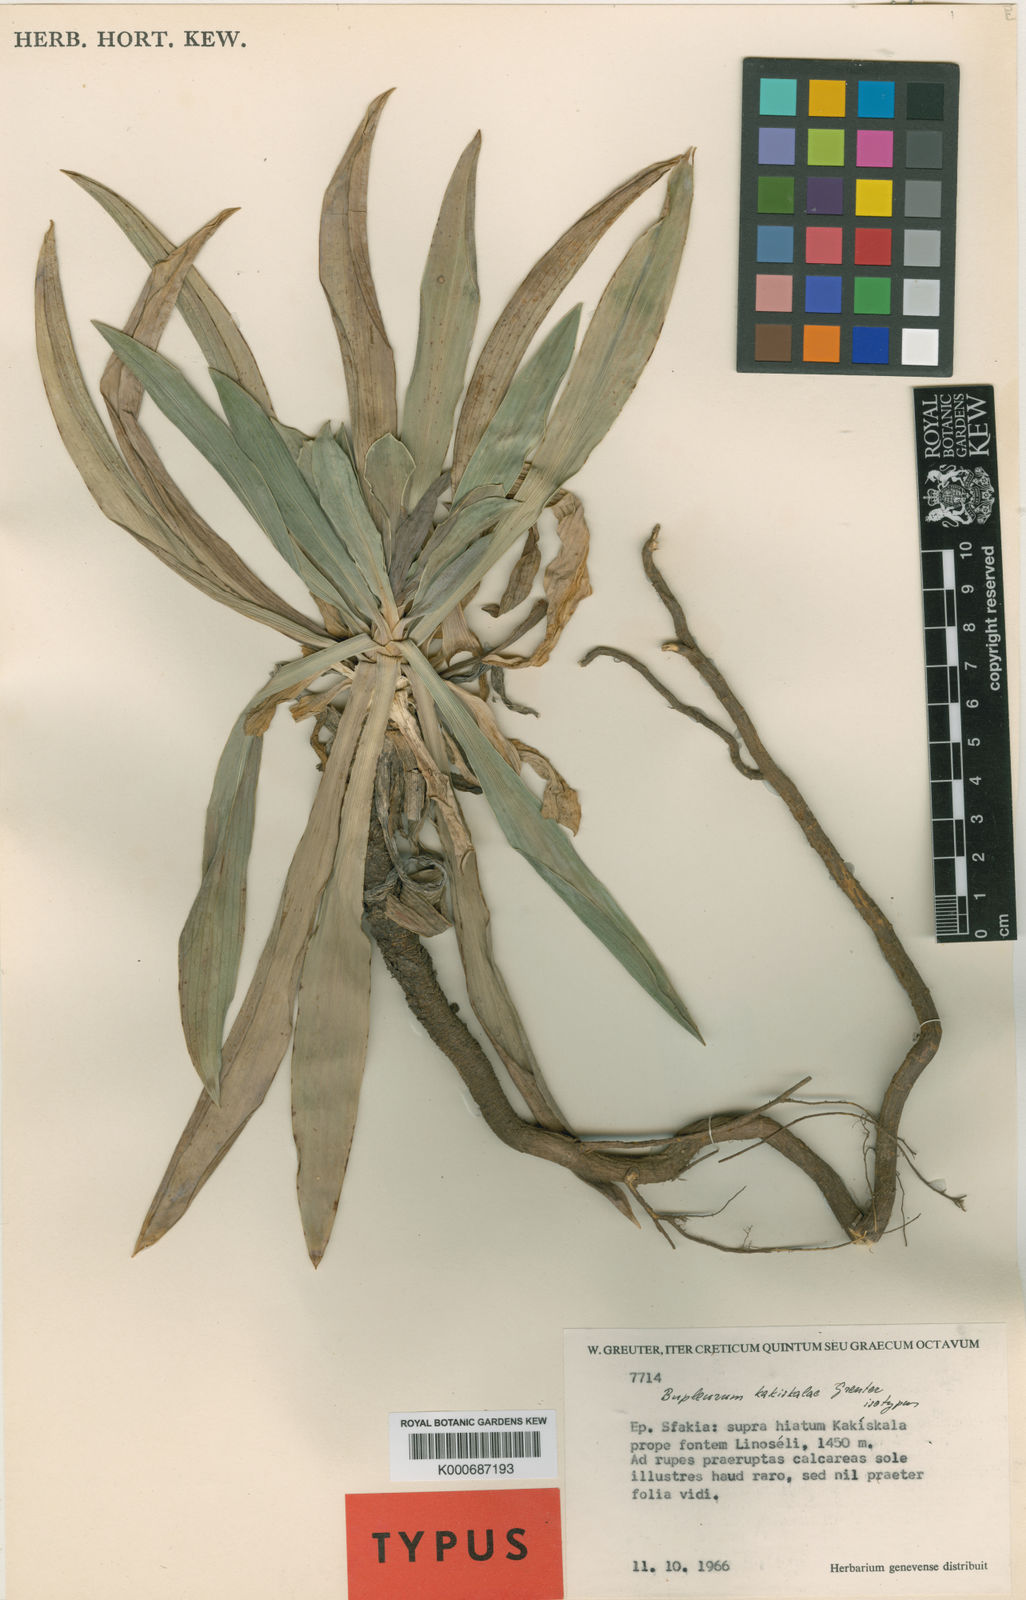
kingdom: Plantae
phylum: Tracheophyta
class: Magnoliopsida
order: Apiales
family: Apiaceae
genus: Bupleurum
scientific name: Bupleurum kakiskalae
